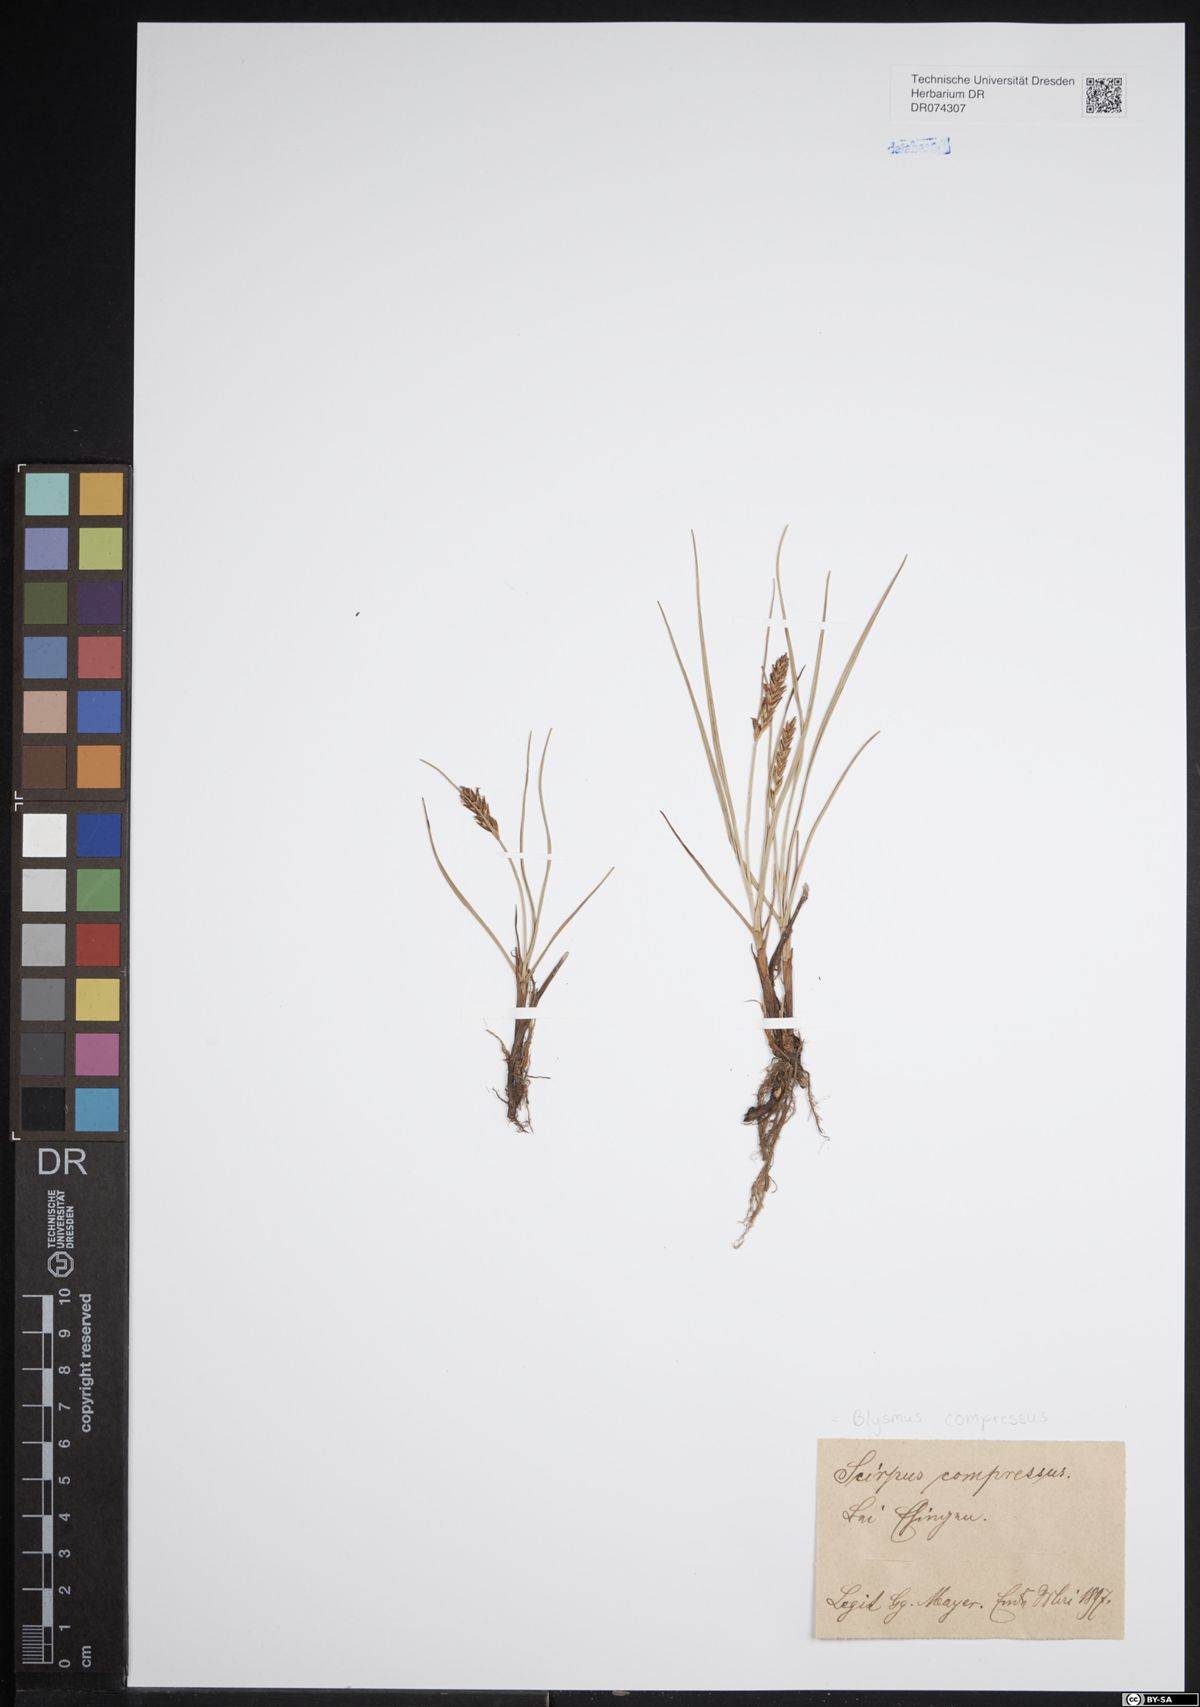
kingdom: Plantae
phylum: Tracheophyta
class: Liliopsida
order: Poales
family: Cyperaceae
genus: Blysmus
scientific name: Blysmus compressus
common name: Flat-sedge
